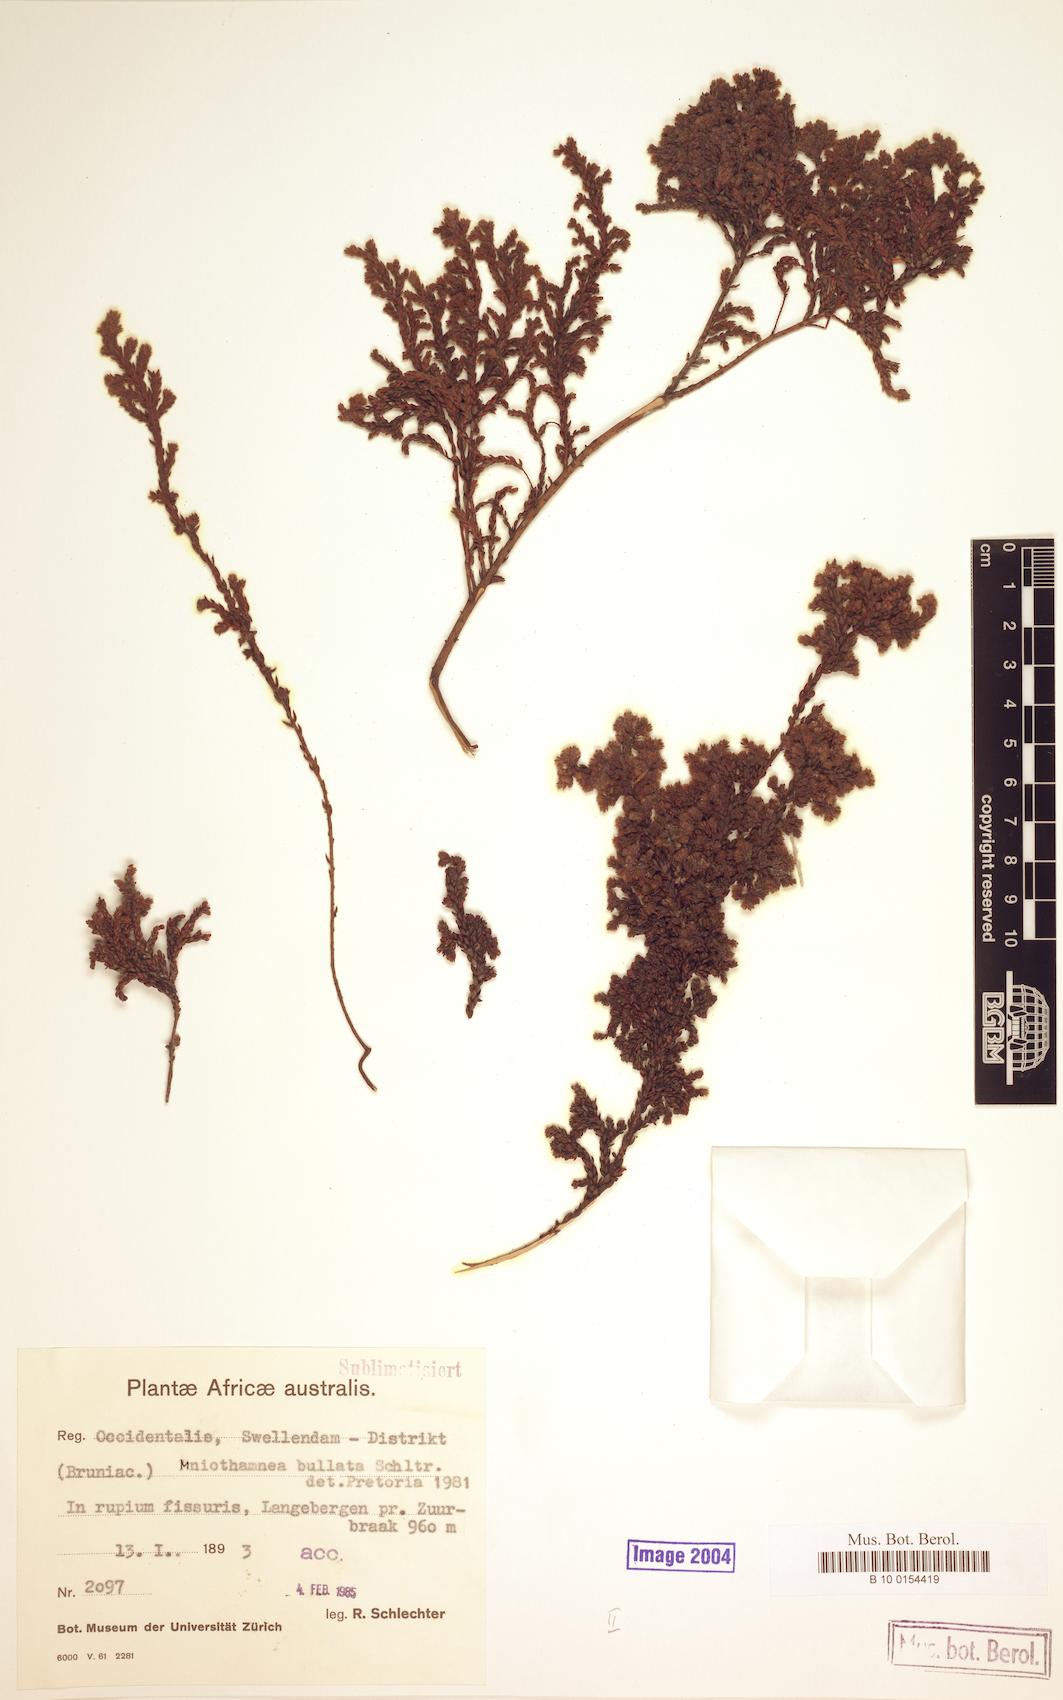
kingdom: Plantae
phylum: Tracheophyta
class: Magnoliopsida
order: Bruniales
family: Bruniaceae
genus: Brunia
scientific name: Brunia bullata
